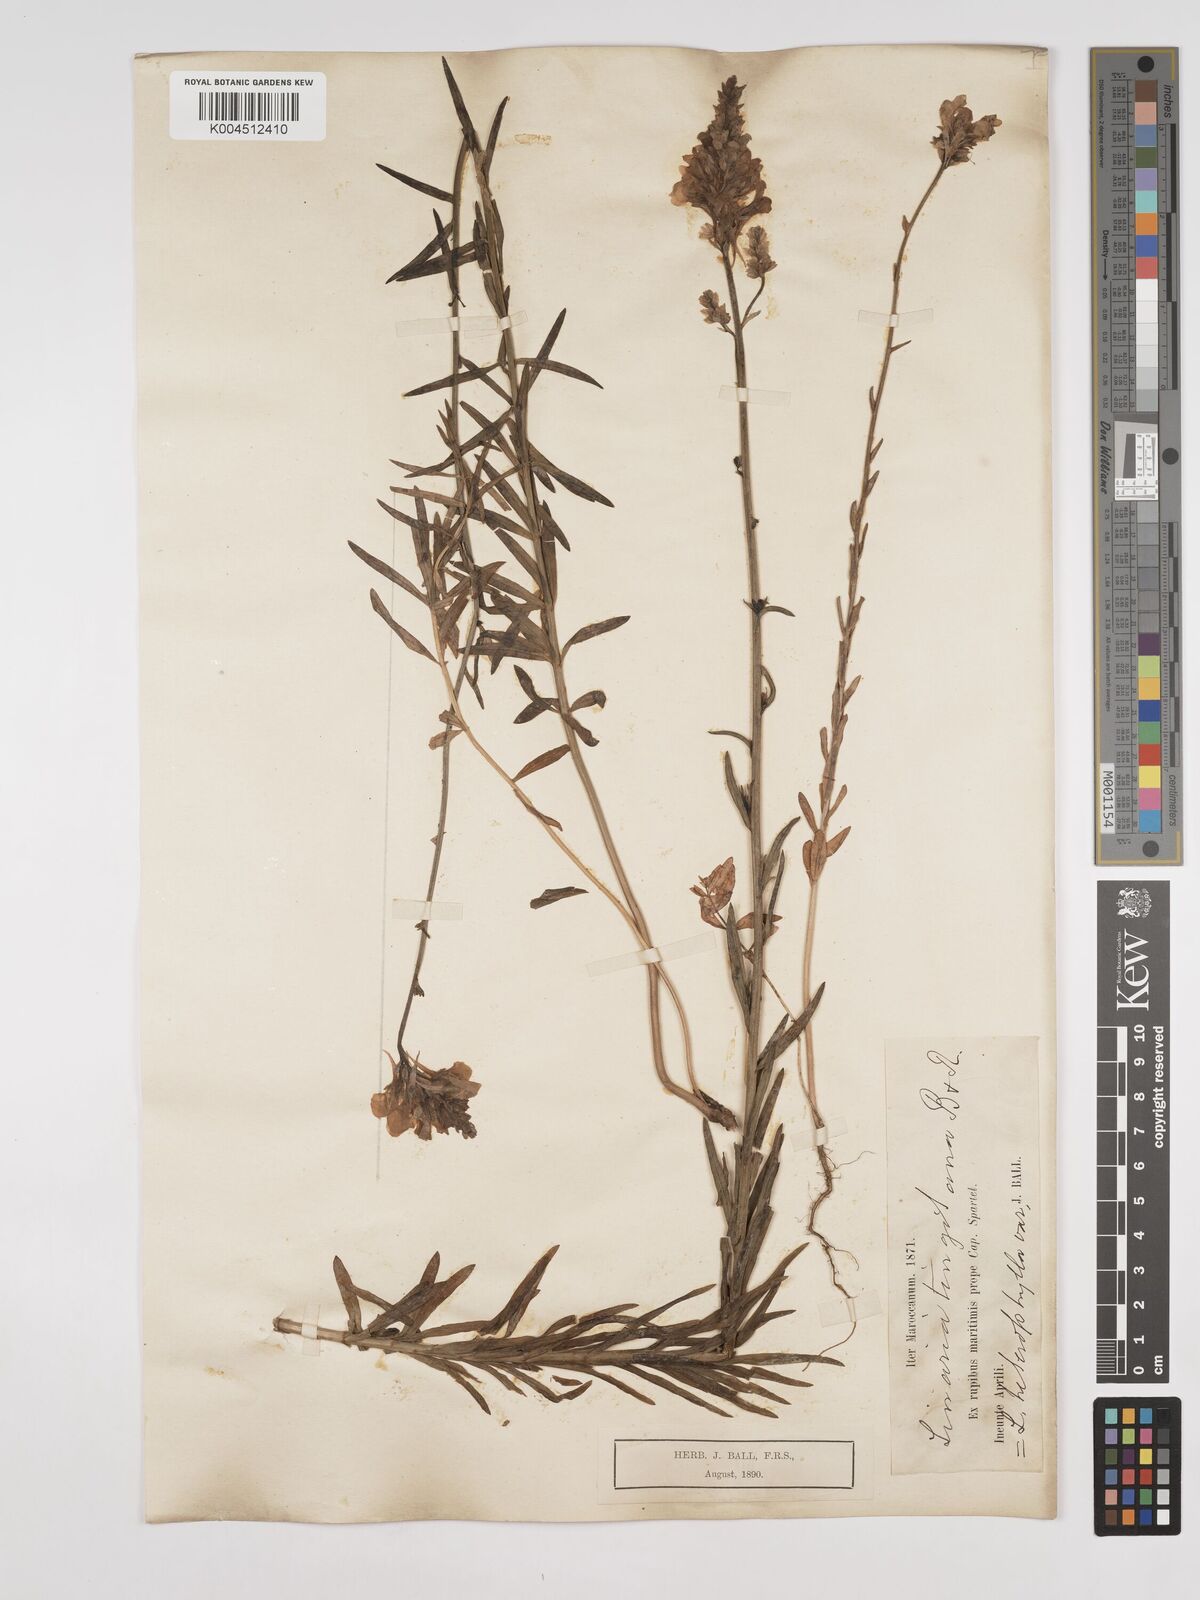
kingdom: Plantae
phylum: Tracheophyta
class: Magnoliopsida
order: Lamiales
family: Plantaginaceae
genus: Linaria
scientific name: Linaria multicaulis
